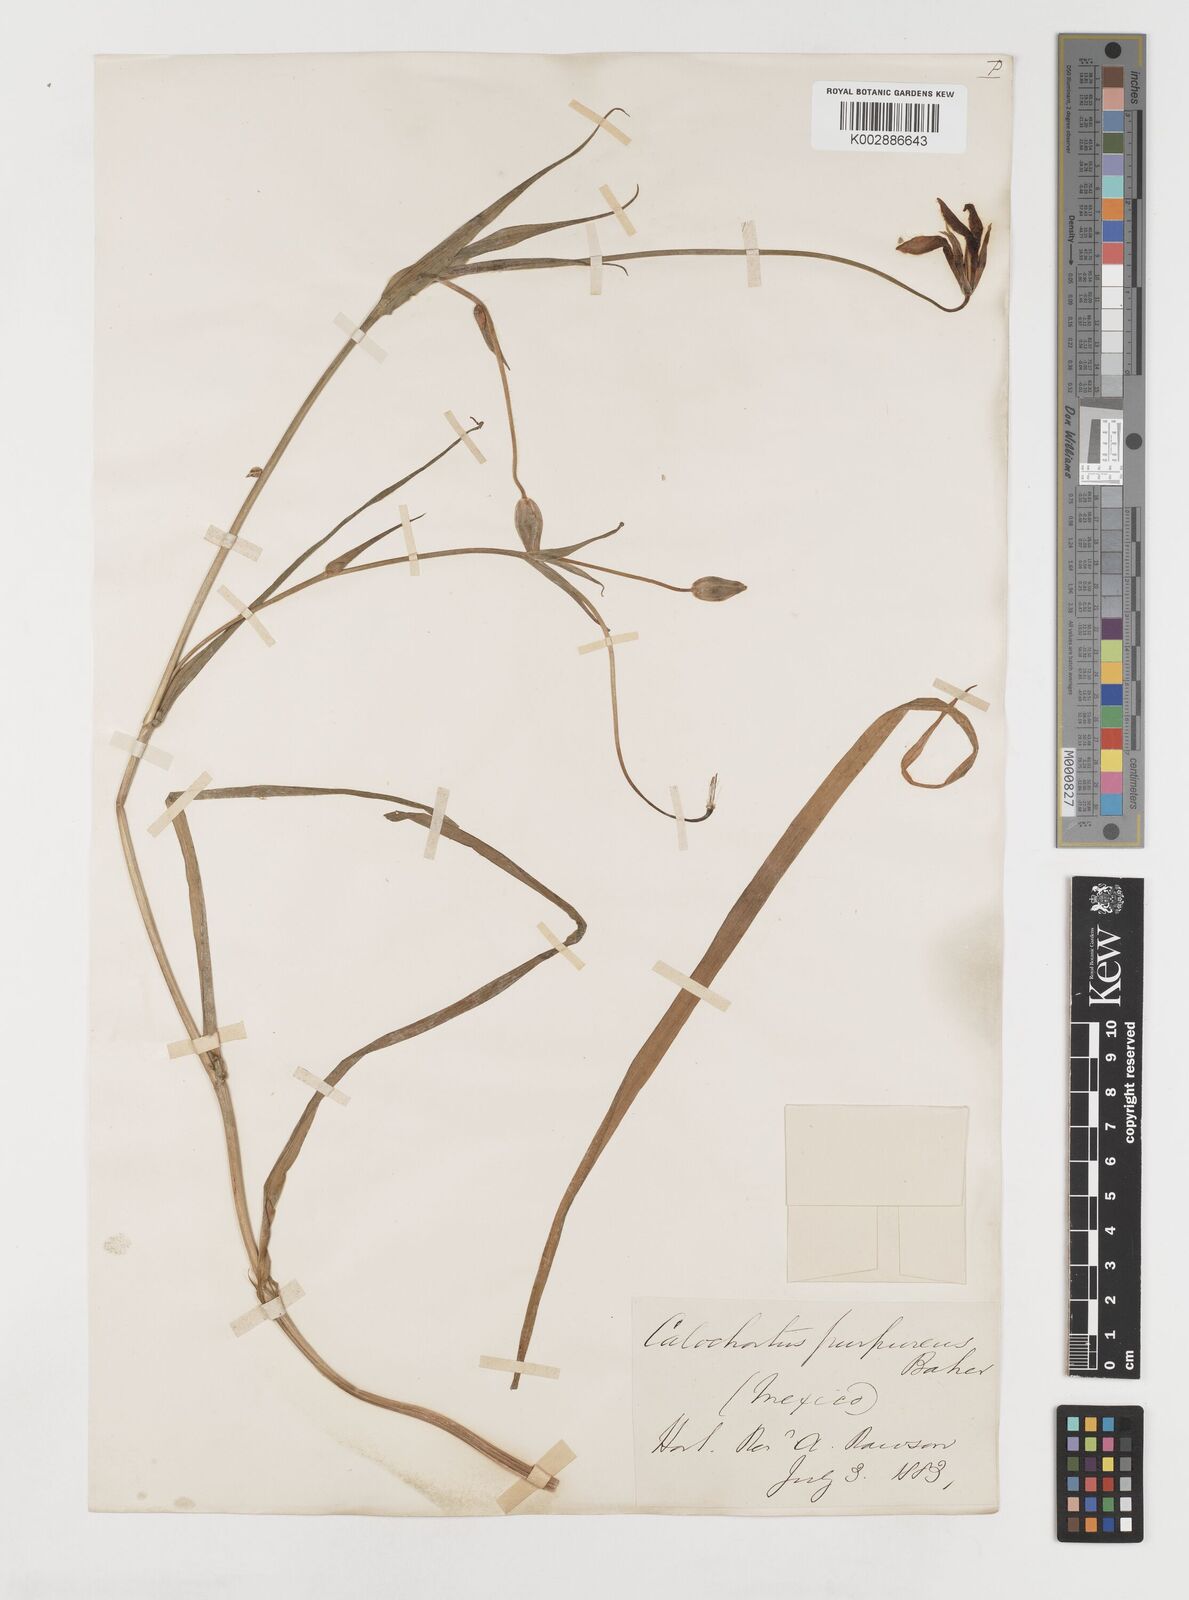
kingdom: Plantae
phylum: Tracheophyta
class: Liliopsida
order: Liliales
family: Liliaceae
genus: Calochortus
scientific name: Calochortus purpureus
